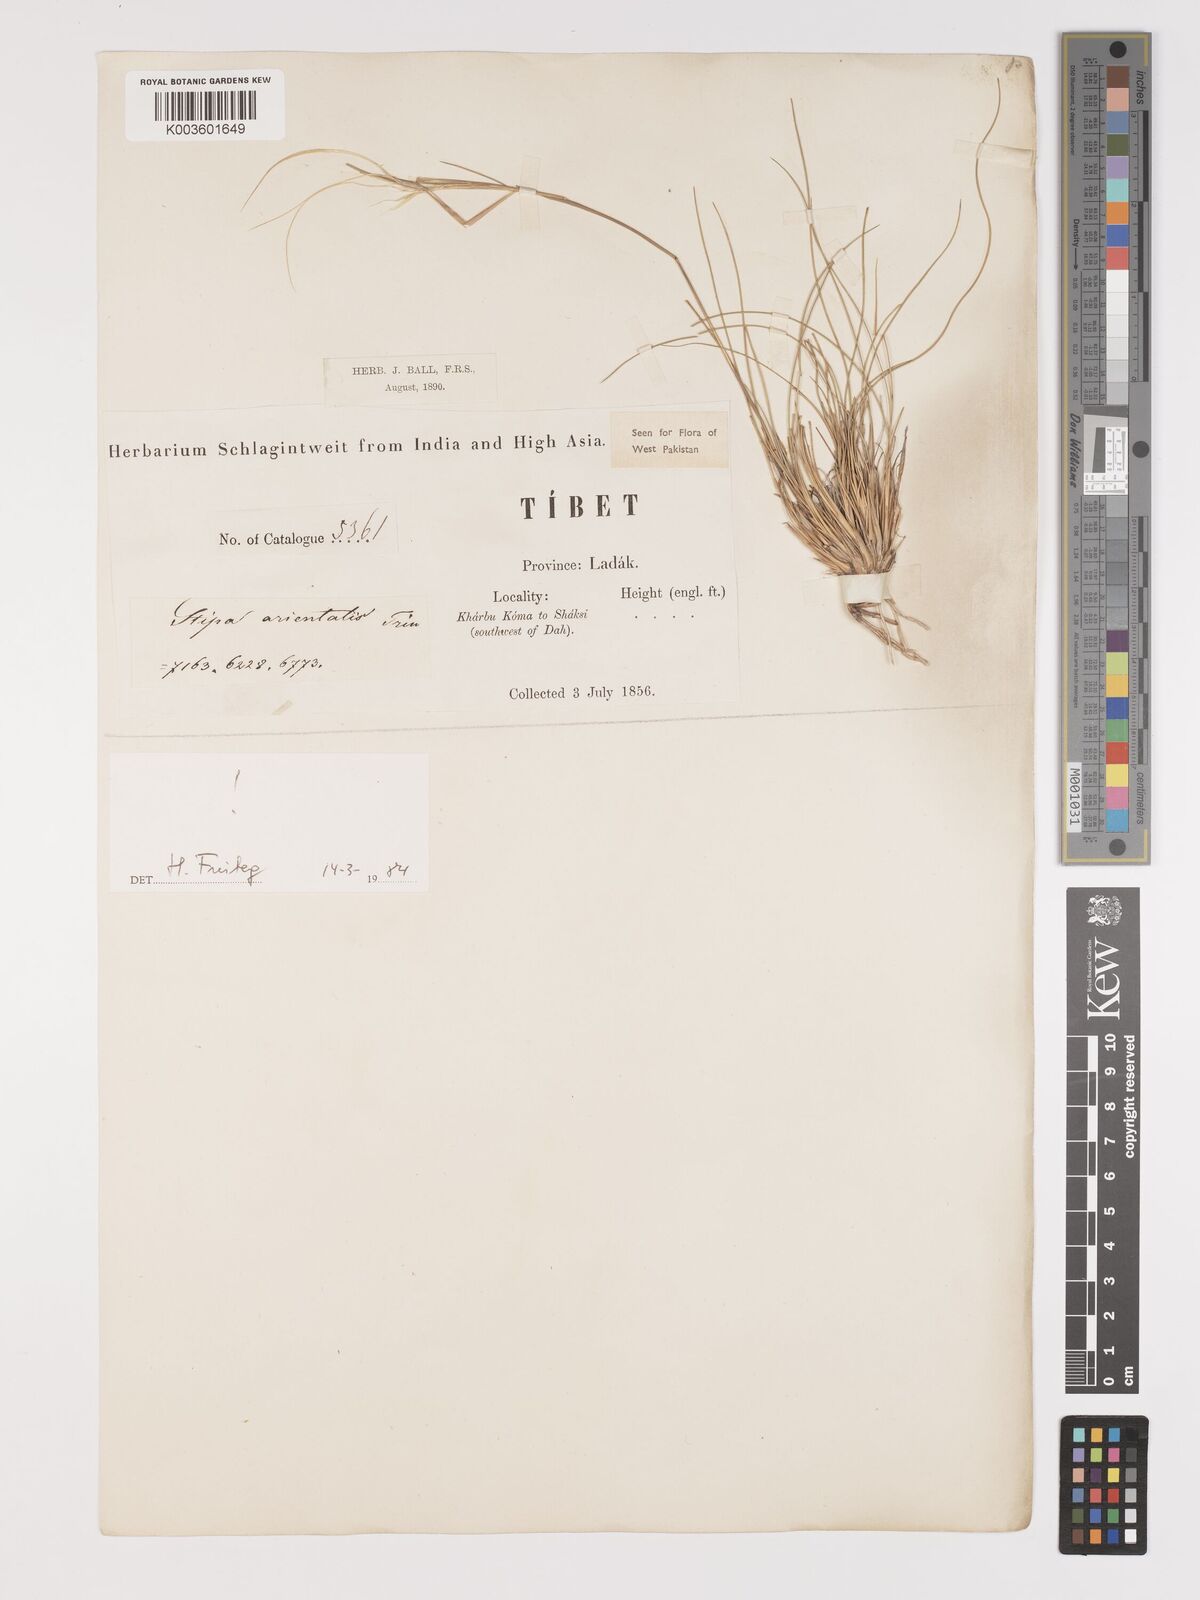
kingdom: Plantae
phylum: Tracheophyta
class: Liliopsida
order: Poales
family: Poaceae
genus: Stipa
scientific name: Stipa orientalis
